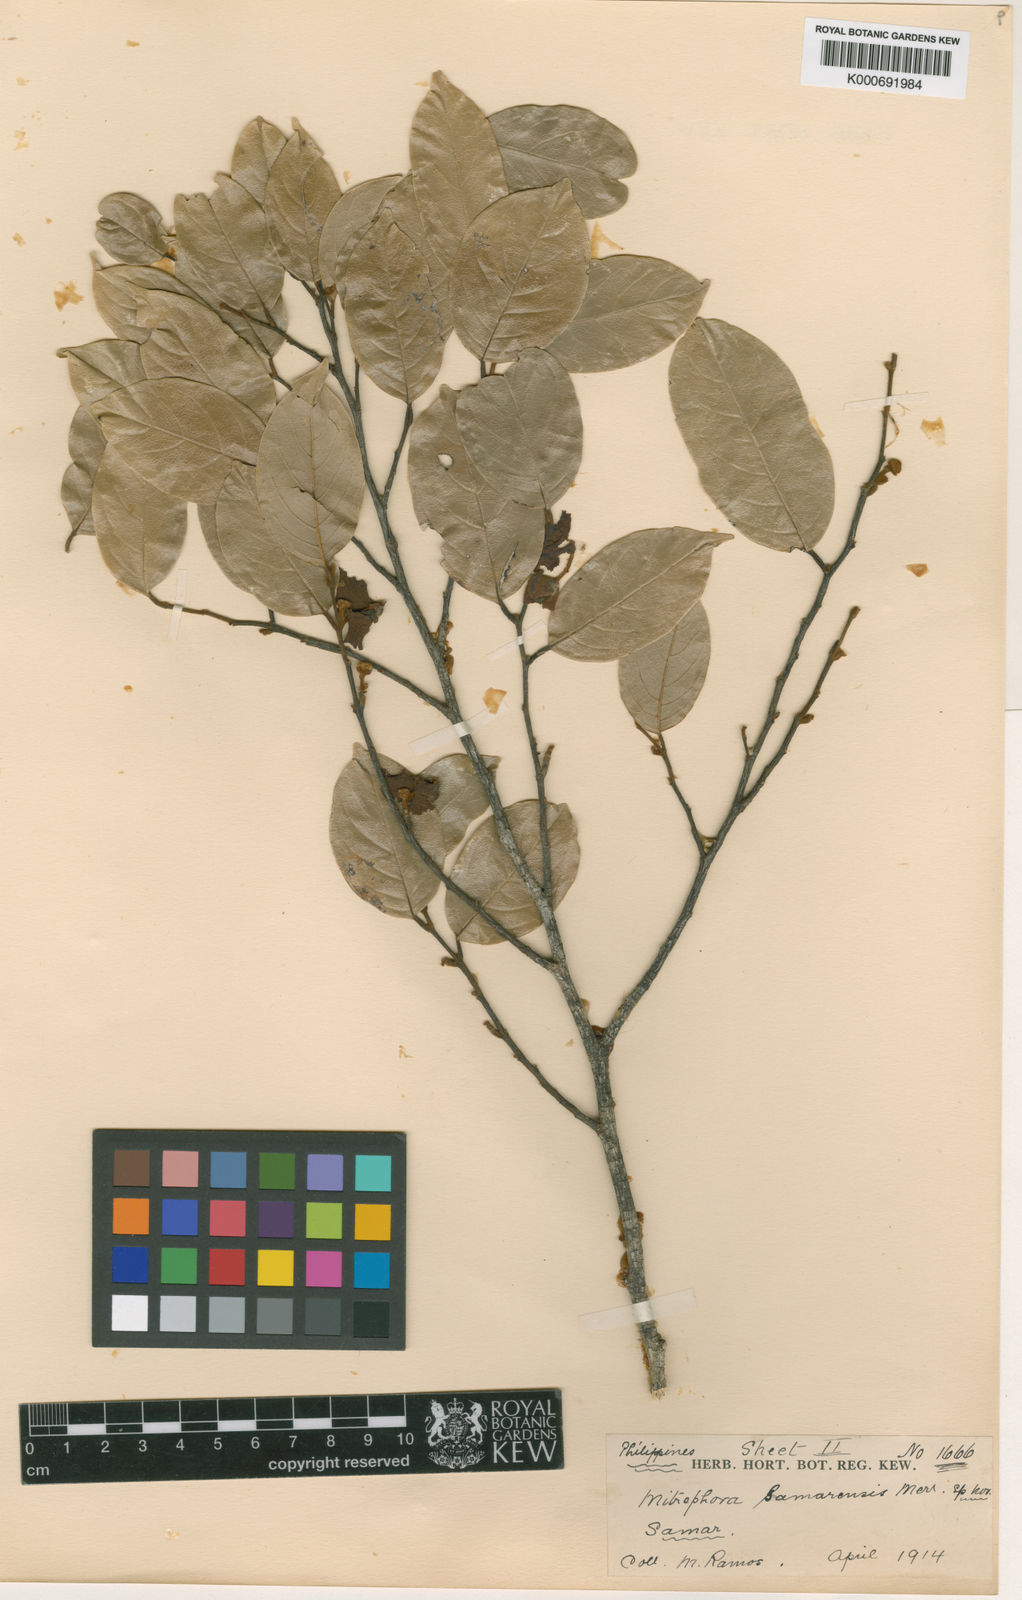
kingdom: Plantae
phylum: Tracheophyta
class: Magnoliopsida
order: Magnoliales
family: Annonaceae
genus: Mitrephora
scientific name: Mitrephora samarensis
